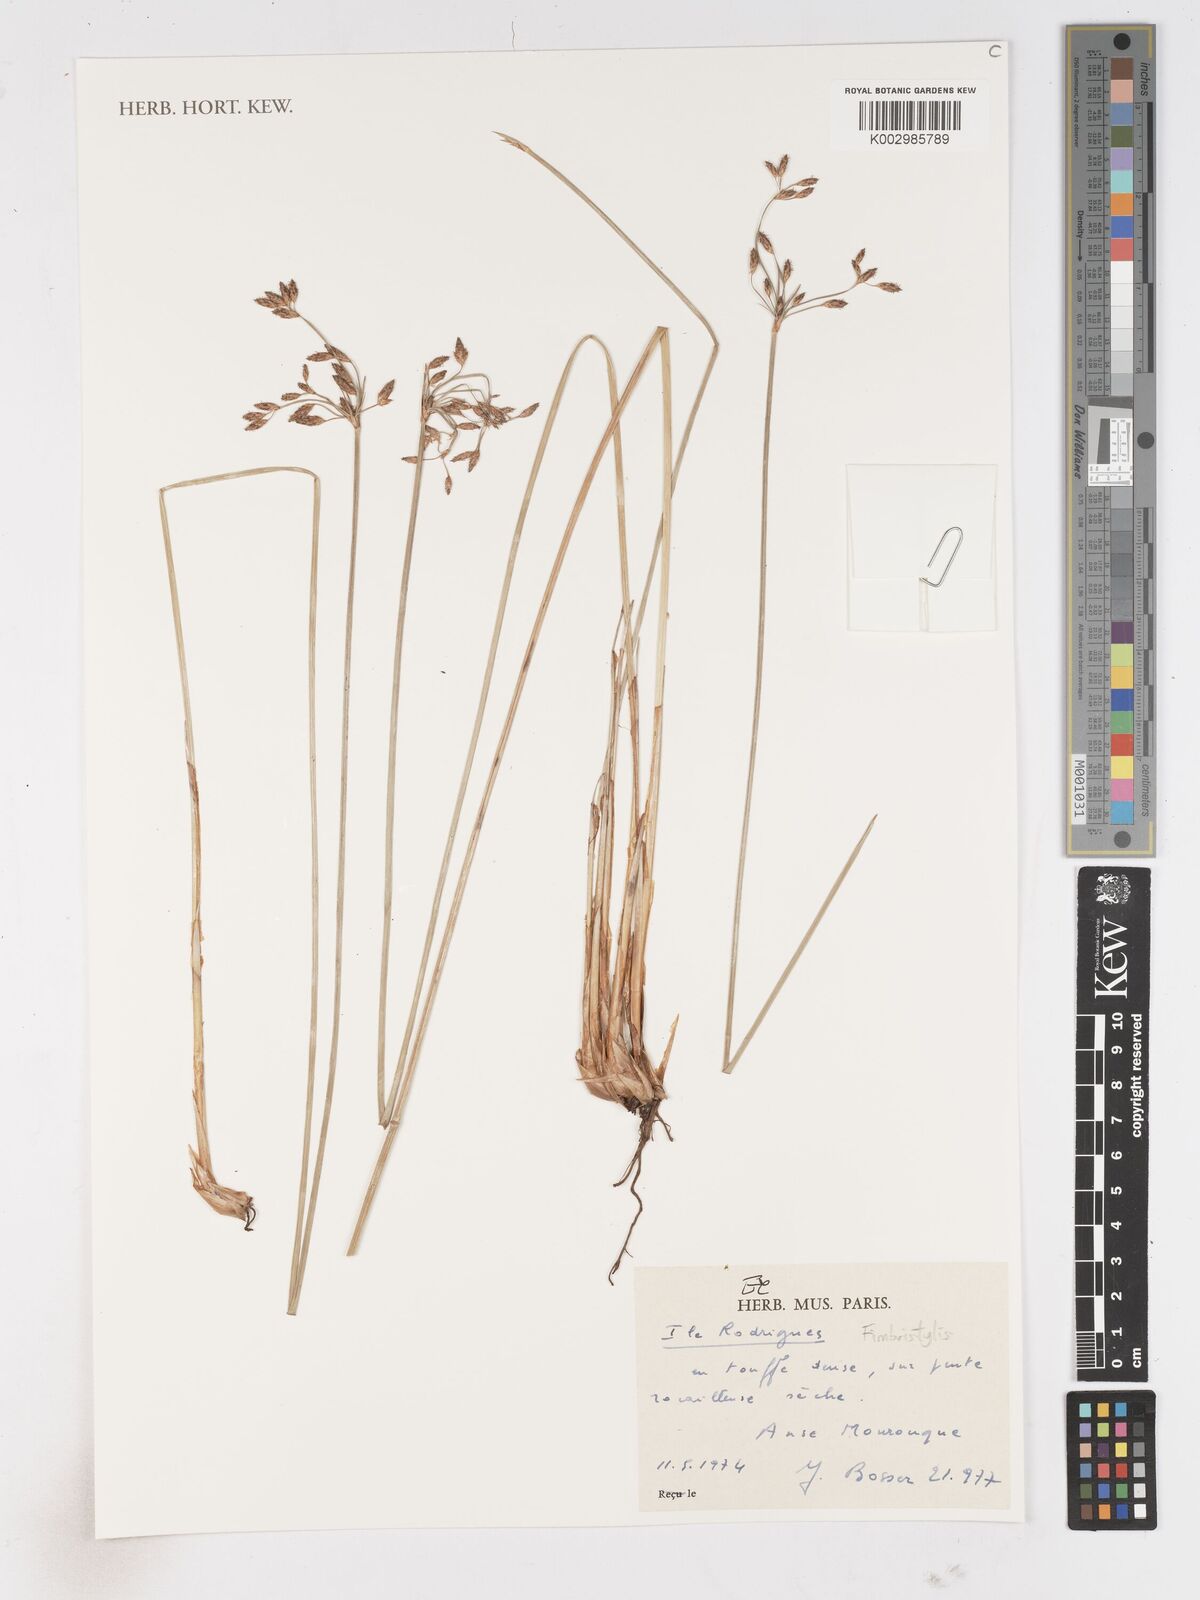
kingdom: Plantae
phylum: Tracheophyta
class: Liliopsida
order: Poales
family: Cyperaceae
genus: Fimbristylis
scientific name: Fimbristylis
